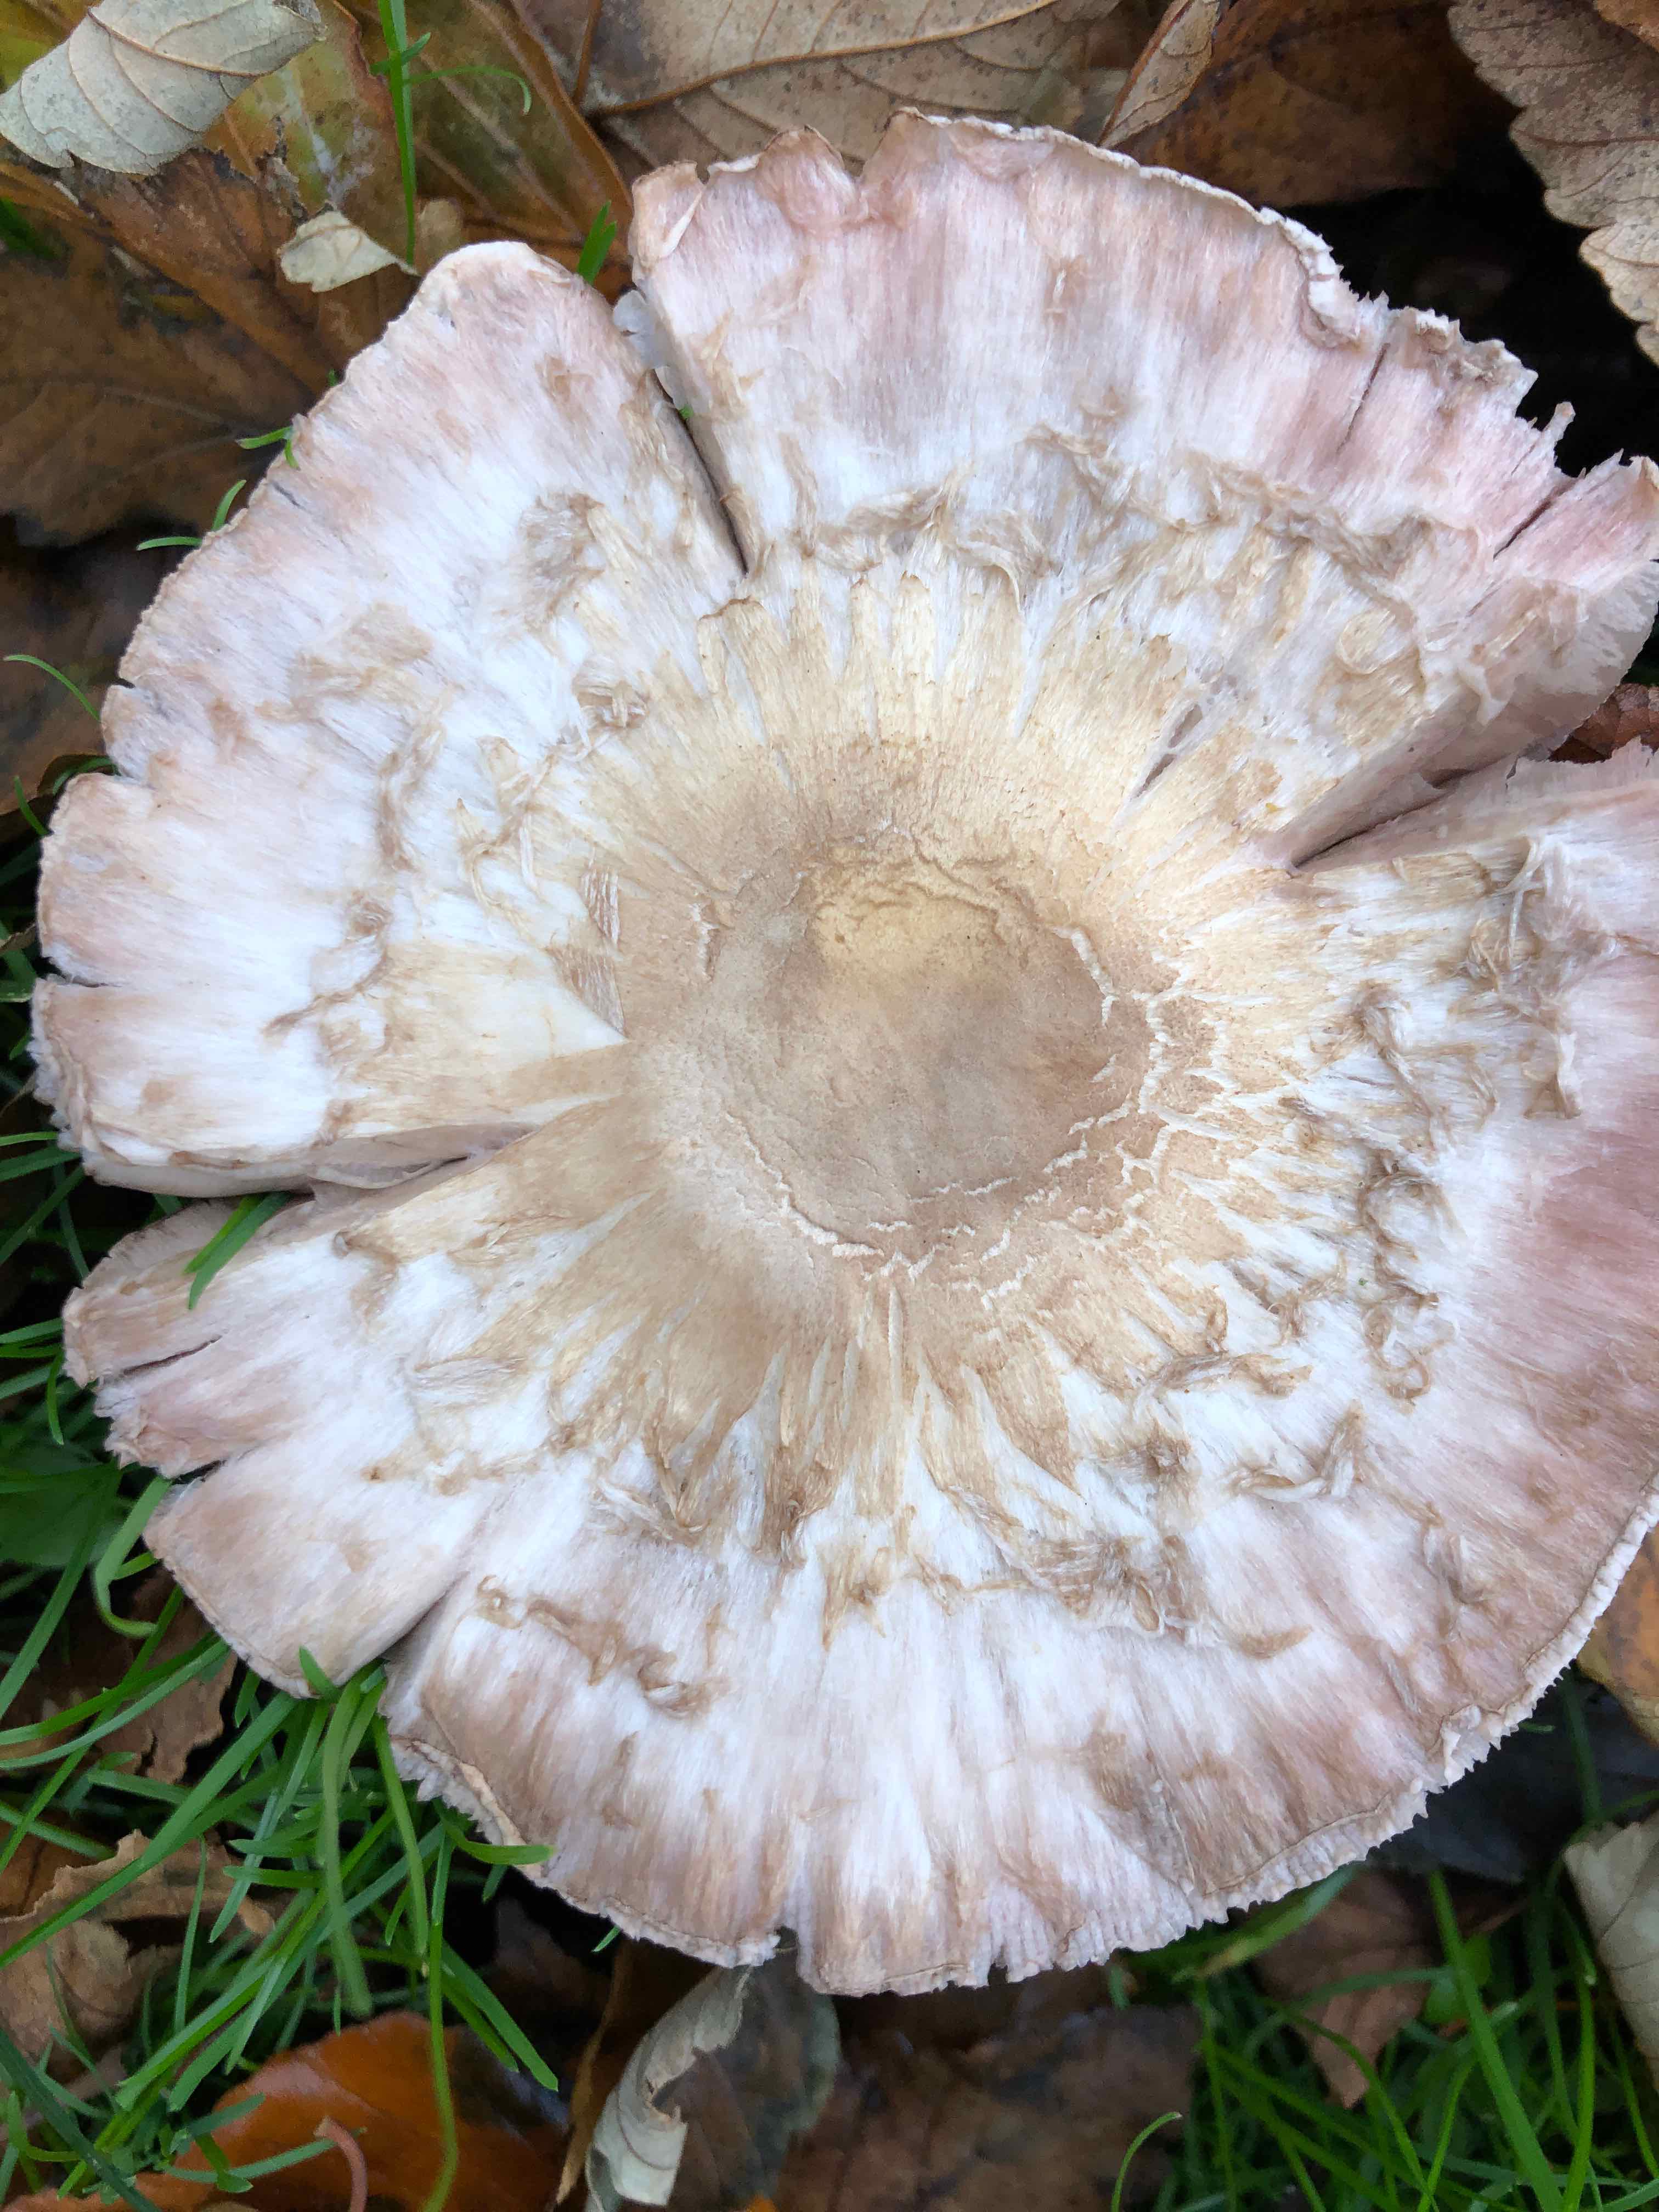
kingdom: Fungi
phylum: Basidiomycota
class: Agaricomycetes
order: Agaricales
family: Agaricaceae
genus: Agaricus
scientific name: Agaricus xanthodermus
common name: karbol-champignon
